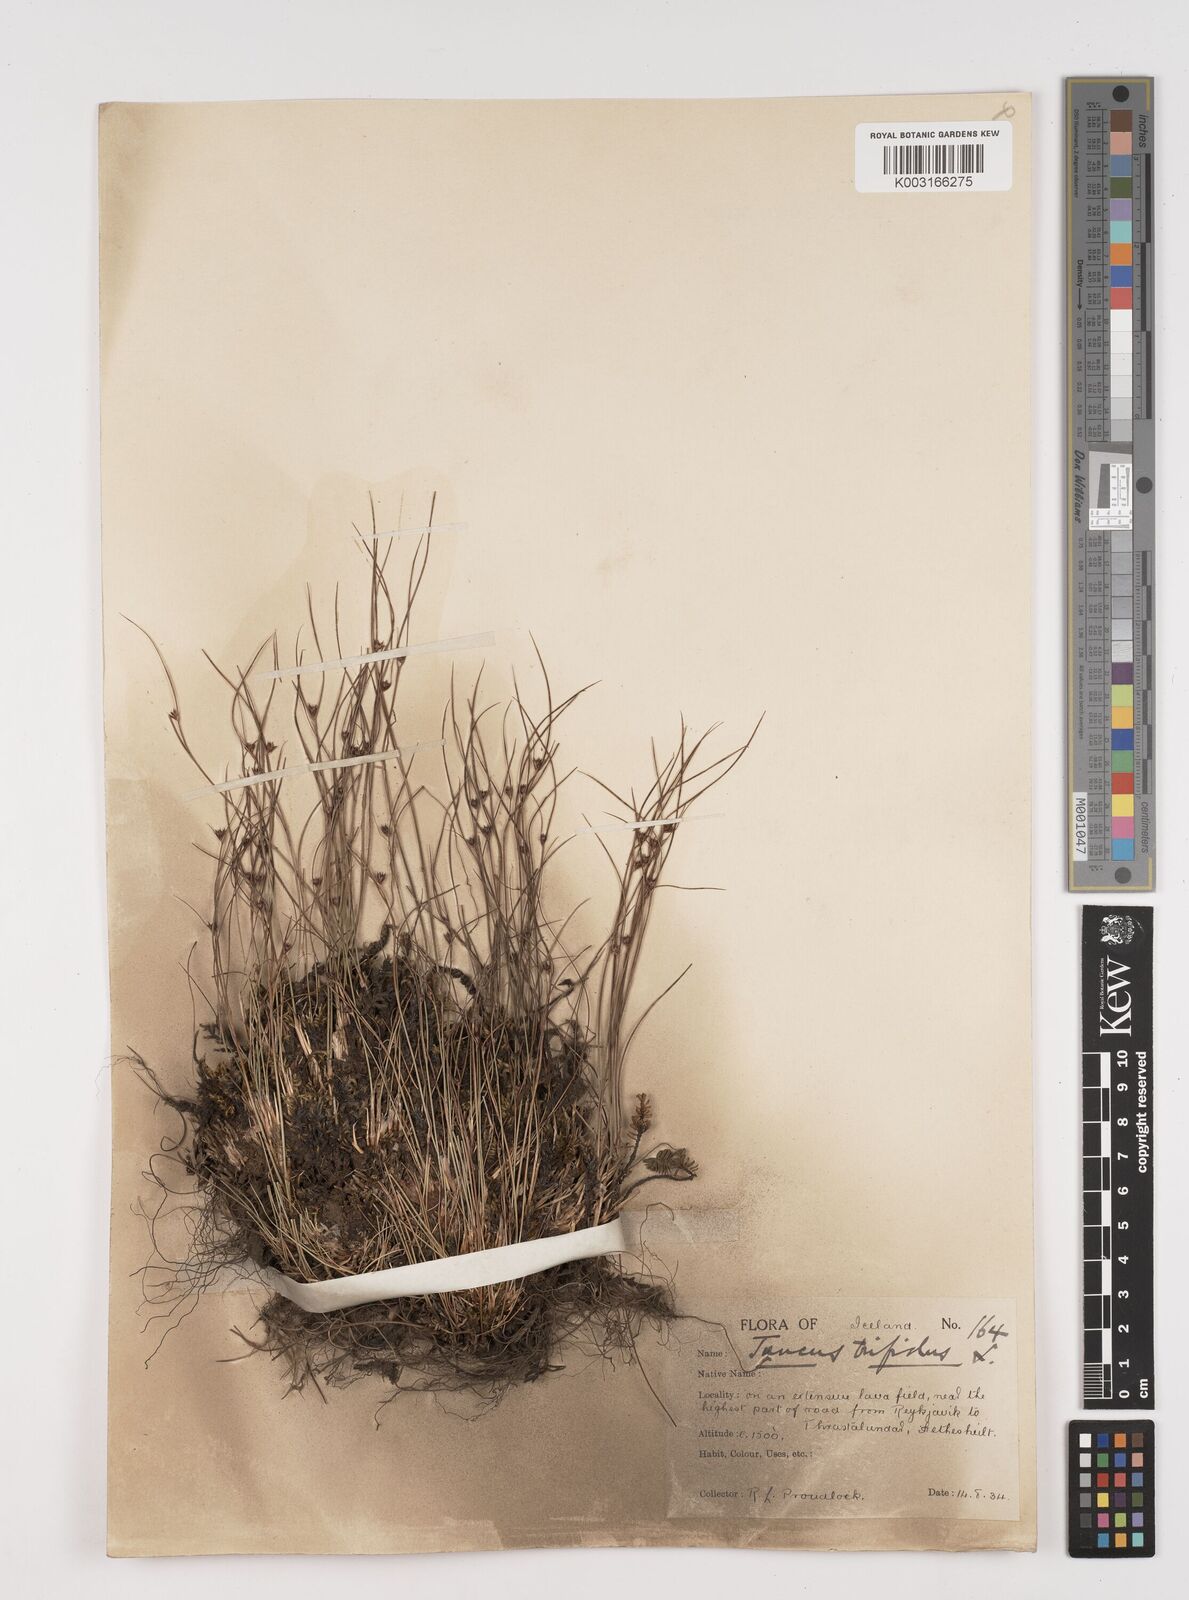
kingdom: Plantae
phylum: Tracheophyta
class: Liliopsida
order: Poales
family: Juncaceae
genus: Oreojuncus
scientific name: Oreojuncus trifidus
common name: Highland rush
